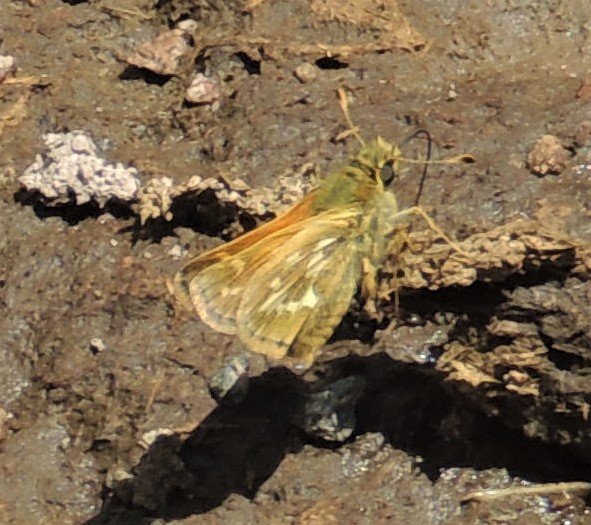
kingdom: Animalia
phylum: Arthropoda
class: Insecta
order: Lepidoptera
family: Hesperiidae
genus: Hesperia
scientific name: Hesperia comma
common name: Western Branded Skipper
